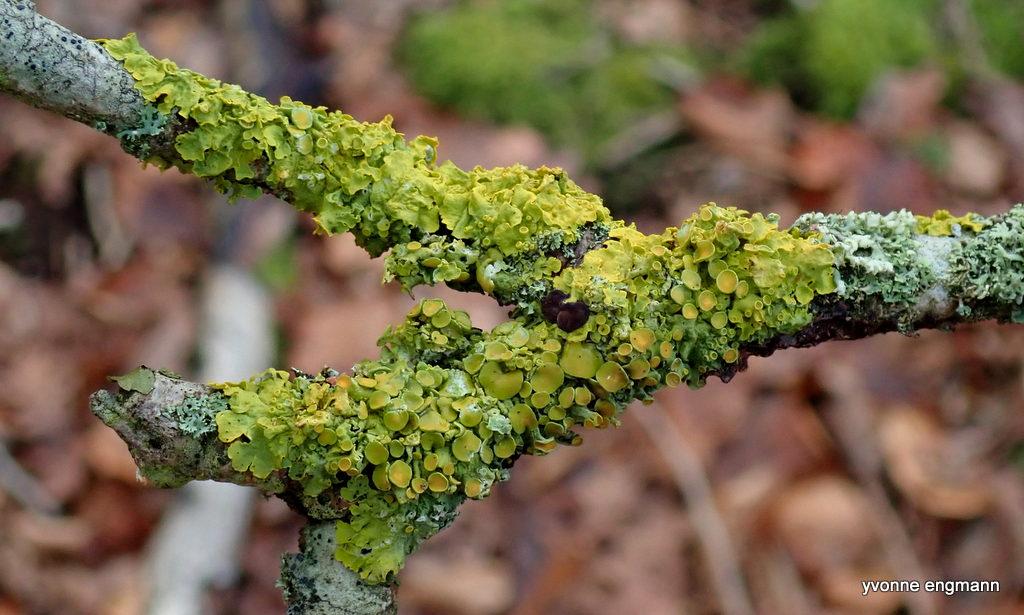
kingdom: Fungi
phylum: Ascomycota
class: Lecanoromycetes
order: Teloschistales
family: Teloschistaceae
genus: Xanthoria
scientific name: Xanthoria parietina
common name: almindelig væggelav
